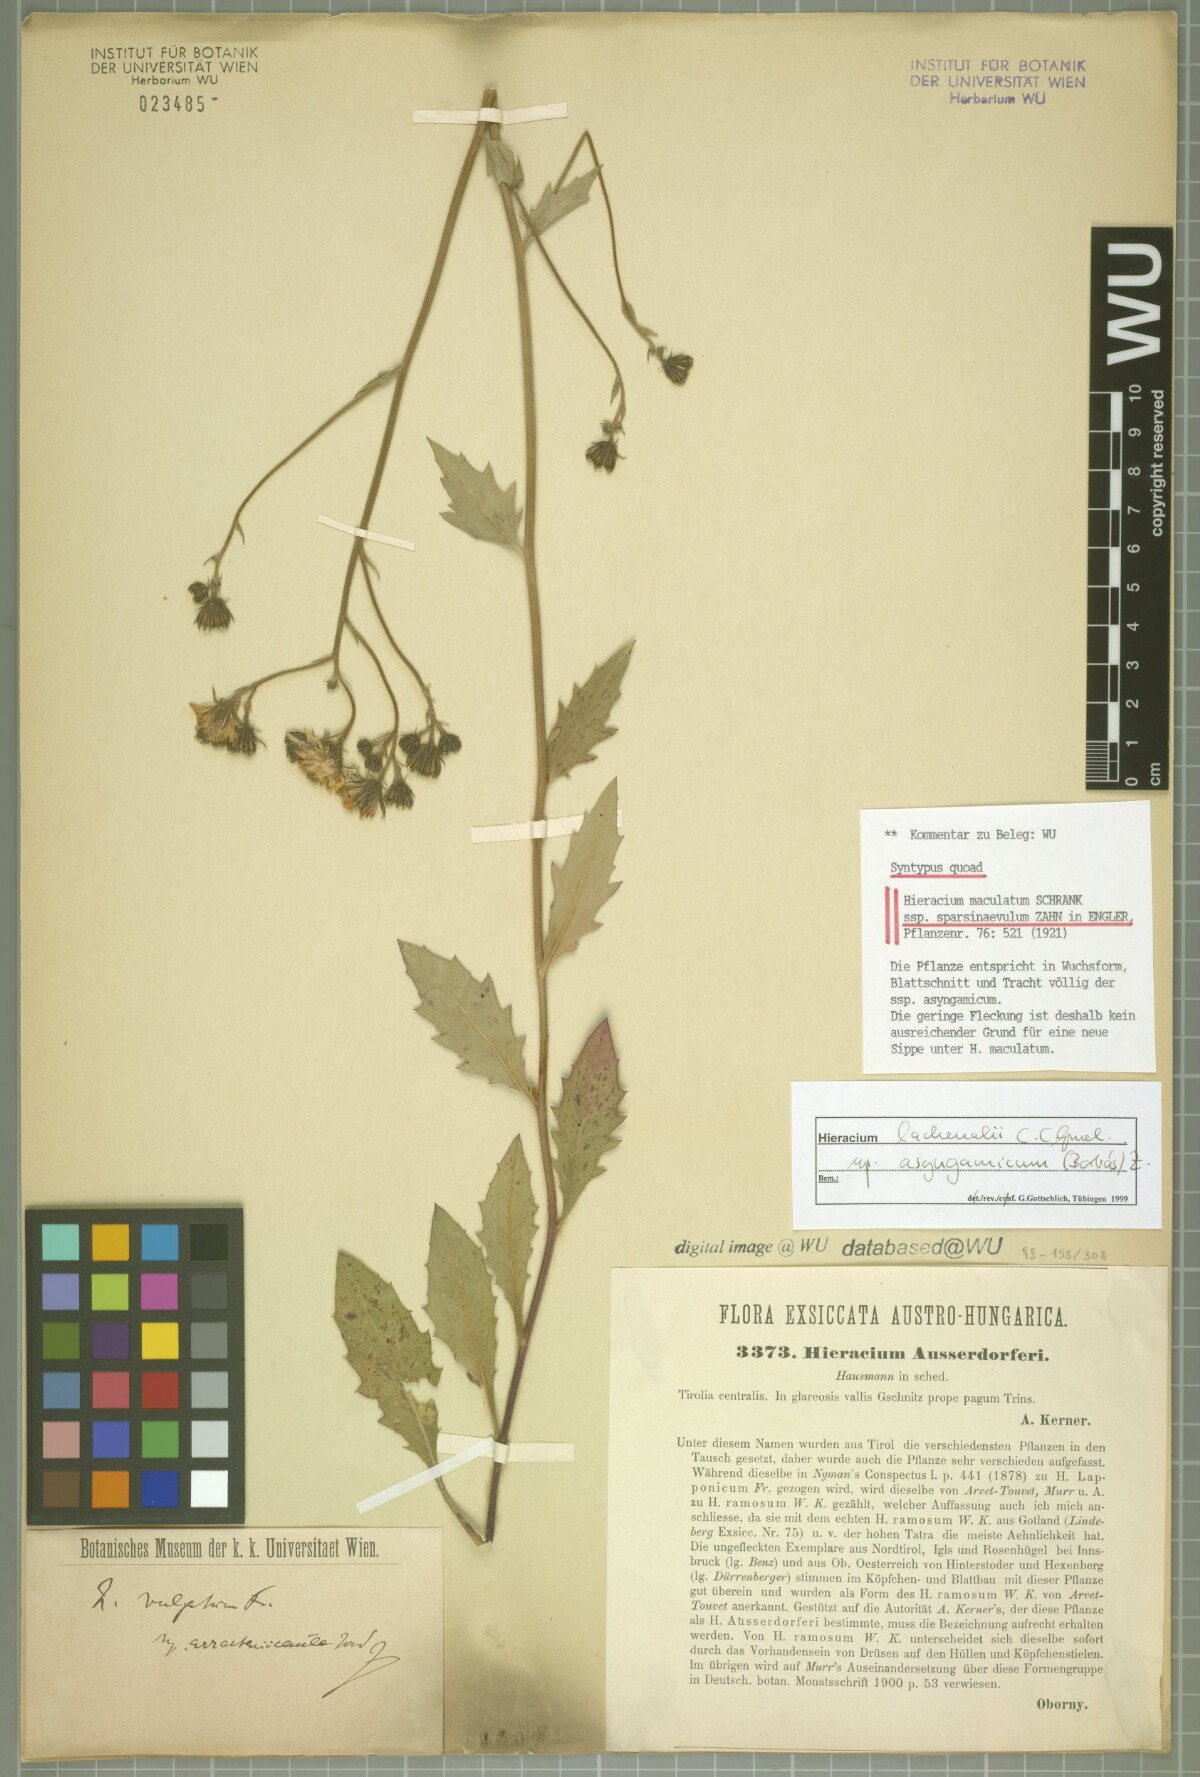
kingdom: Plantae
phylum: Tracheophyta
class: Magnoliopsida
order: Asterales
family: Asteraceae
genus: Hieracium
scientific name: Hieracium maculatum
